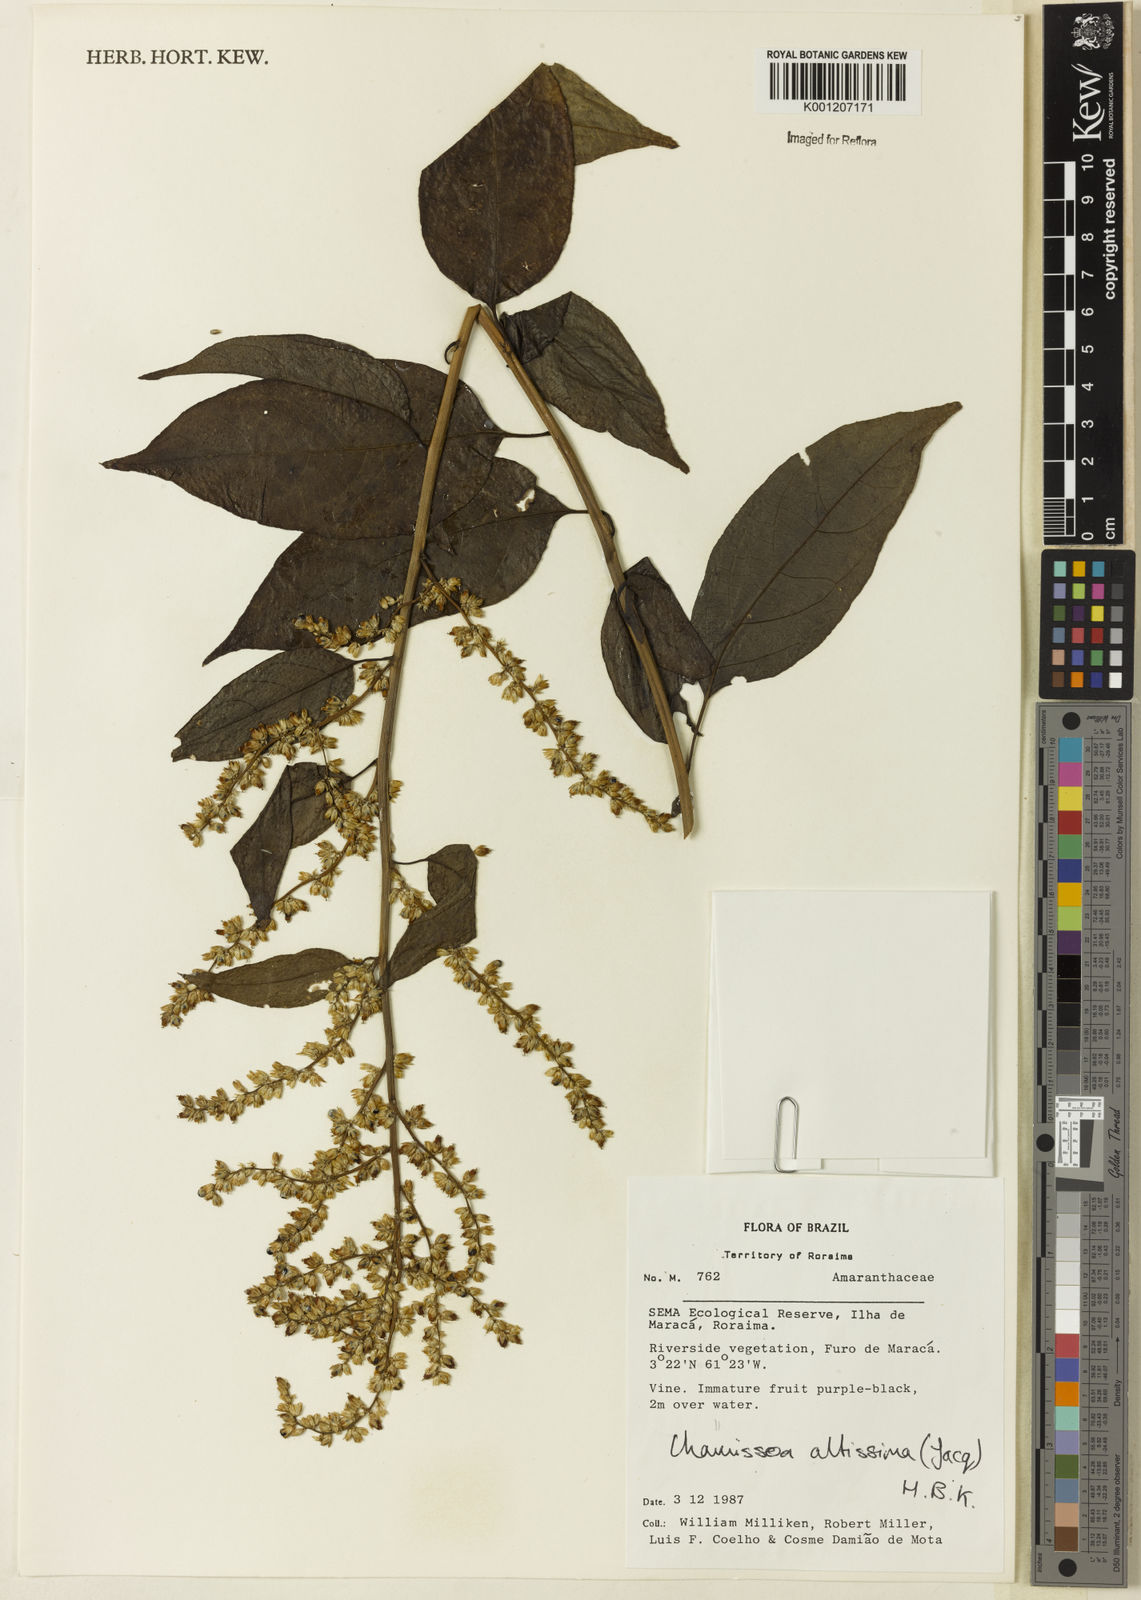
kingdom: Plantae
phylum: Tracheophyta
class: Magnoliopsida
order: Caryophyllales
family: Amaranthaceae
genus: Chamissoa
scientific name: Chamissoa altissima
